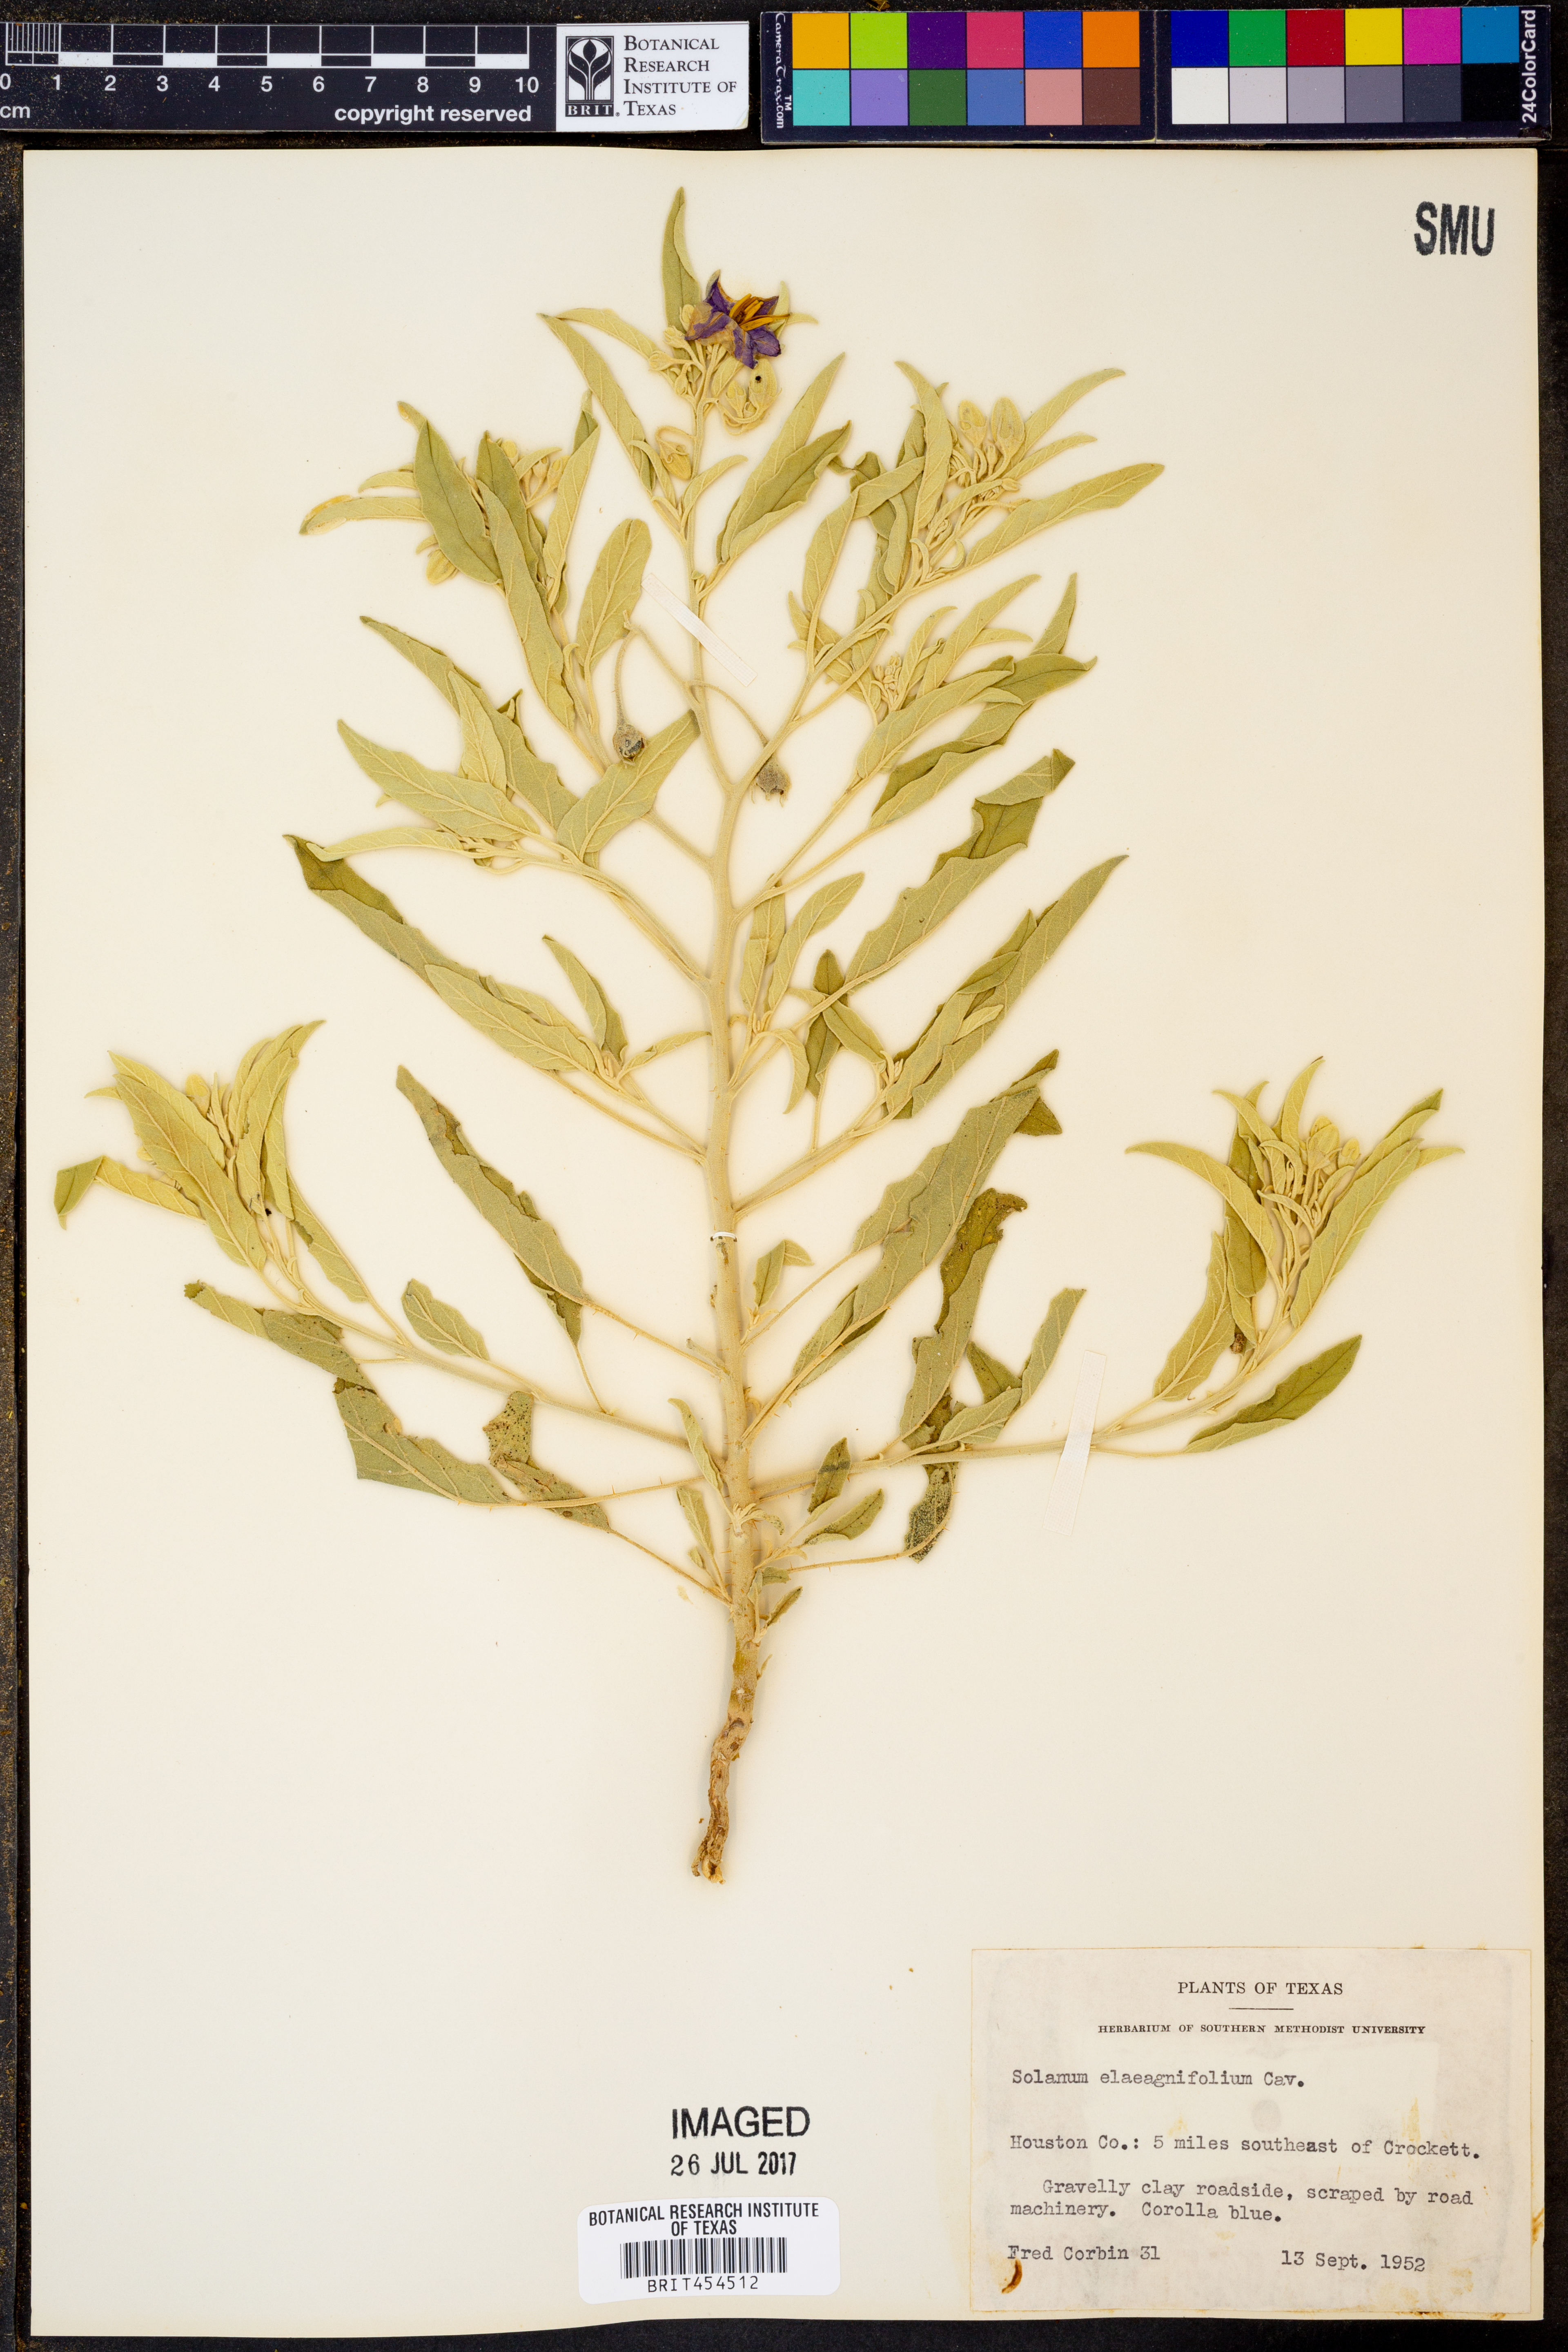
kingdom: Plantae
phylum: Tracheophyta
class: Magnoliopsida
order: Solanales
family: Solanaceae
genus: Solanum
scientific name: Solanum elaeagnifolium
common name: Silverleaf nightshade
